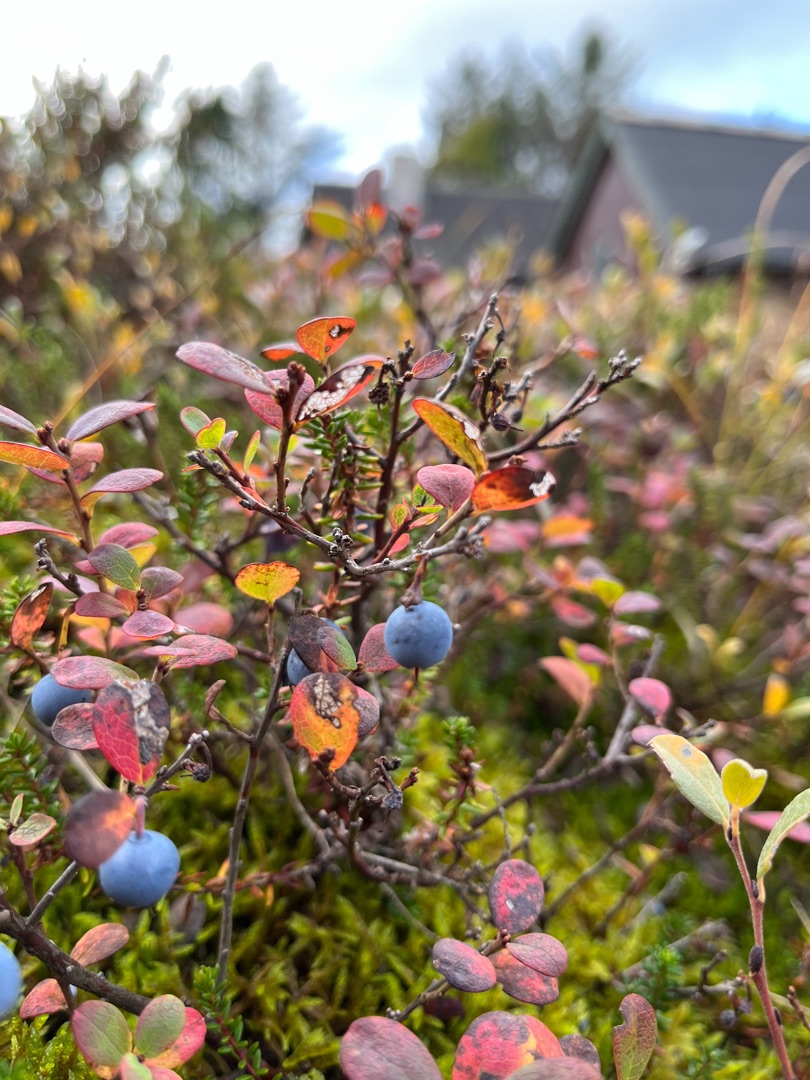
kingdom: Plantae
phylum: Tracheophyta
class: Magnoliopsida
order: Ericales
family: Ericaceae
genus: Vaccinium
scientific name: Vaccinium uliginosum
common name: Mose-bølle
